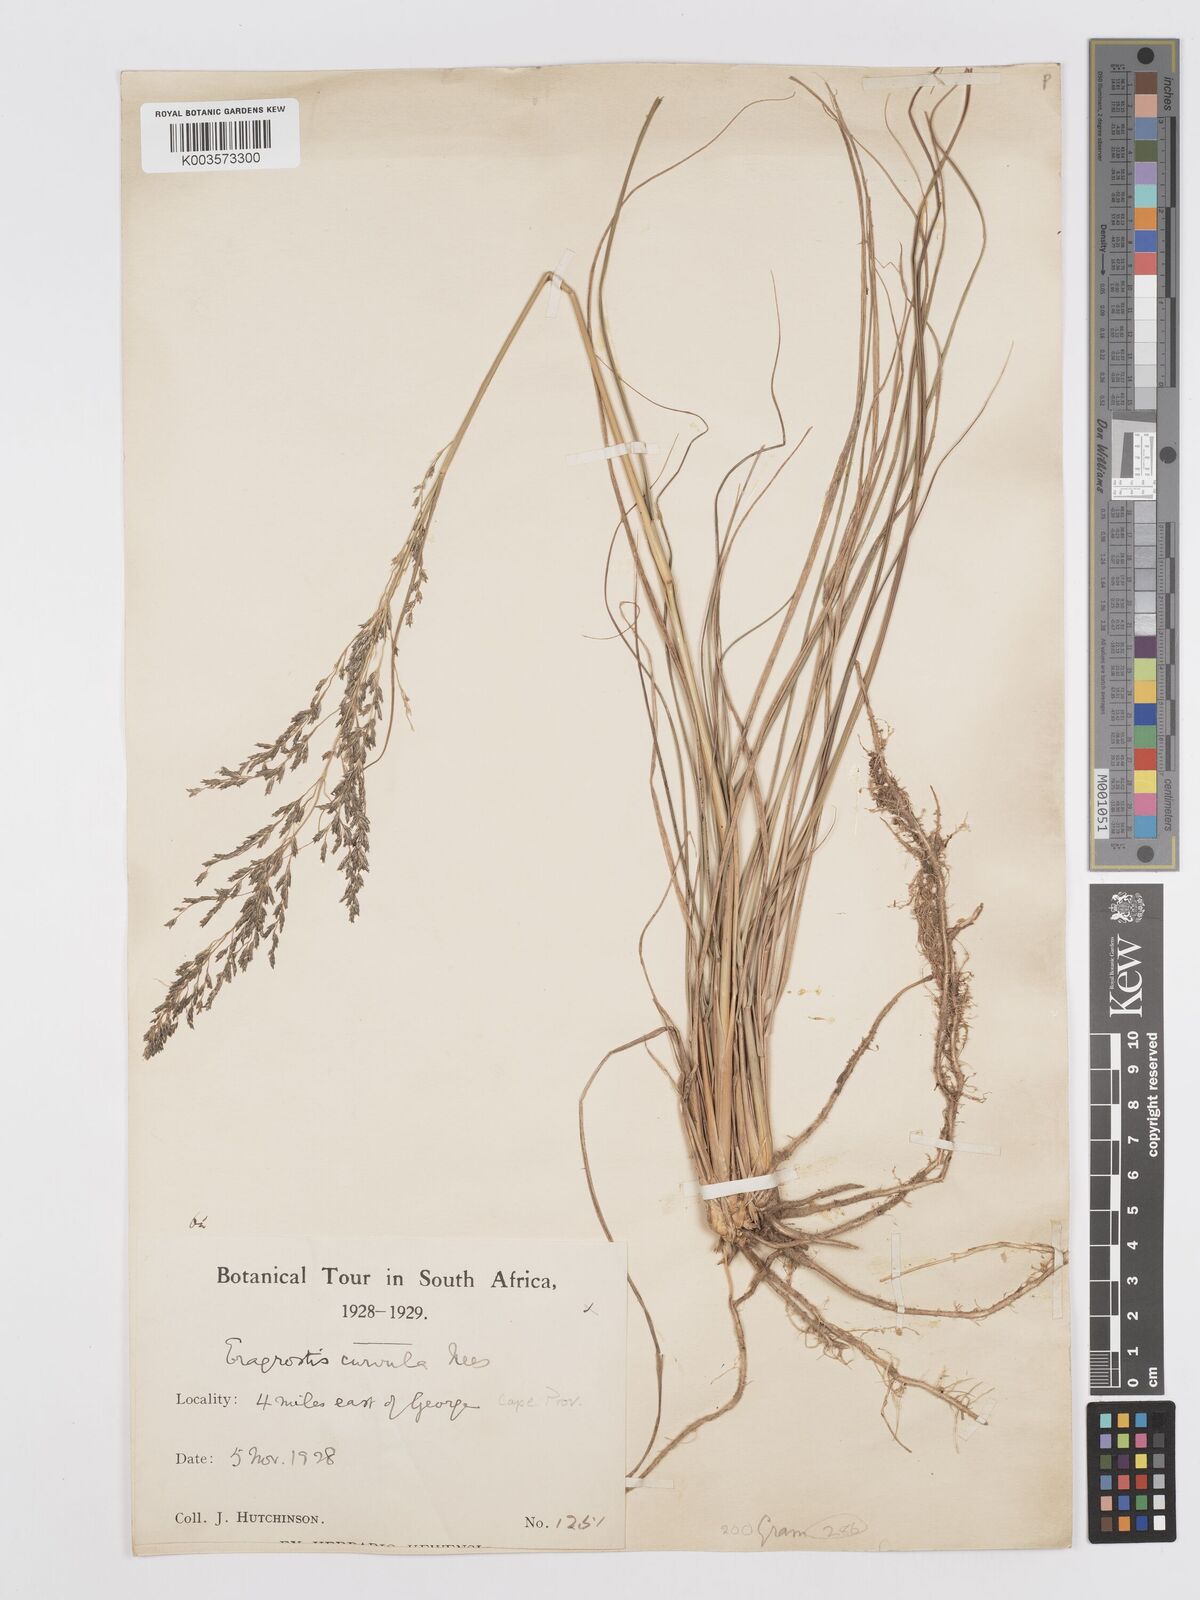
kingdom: Plantae
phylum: Tracheophyta
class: Liliopsida
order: Poales
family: Poaceae
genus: Eragrostis
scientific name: Eragrostis curvula
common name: African love-grass
